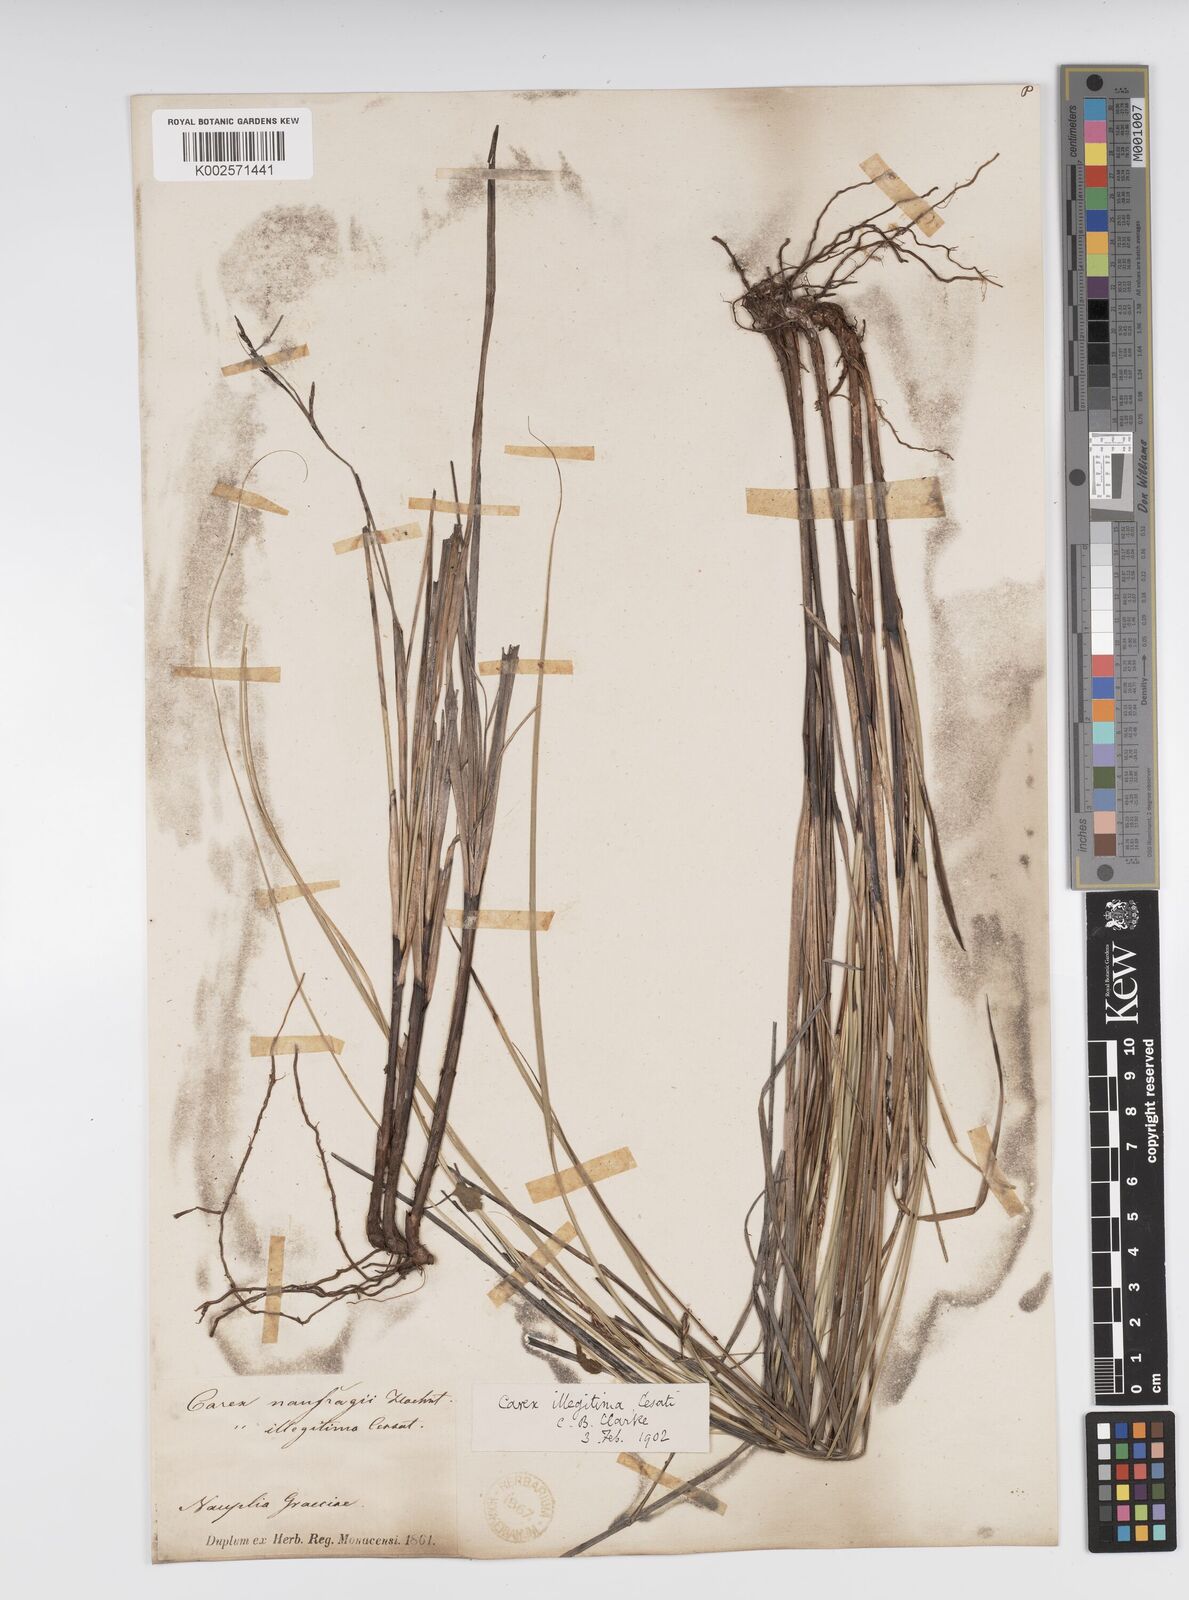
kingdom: Plantae
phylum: Tracheophyta
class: Liliopsida
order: Poales
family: Cyperaceae
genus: Carex
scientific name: Carex illegitima
